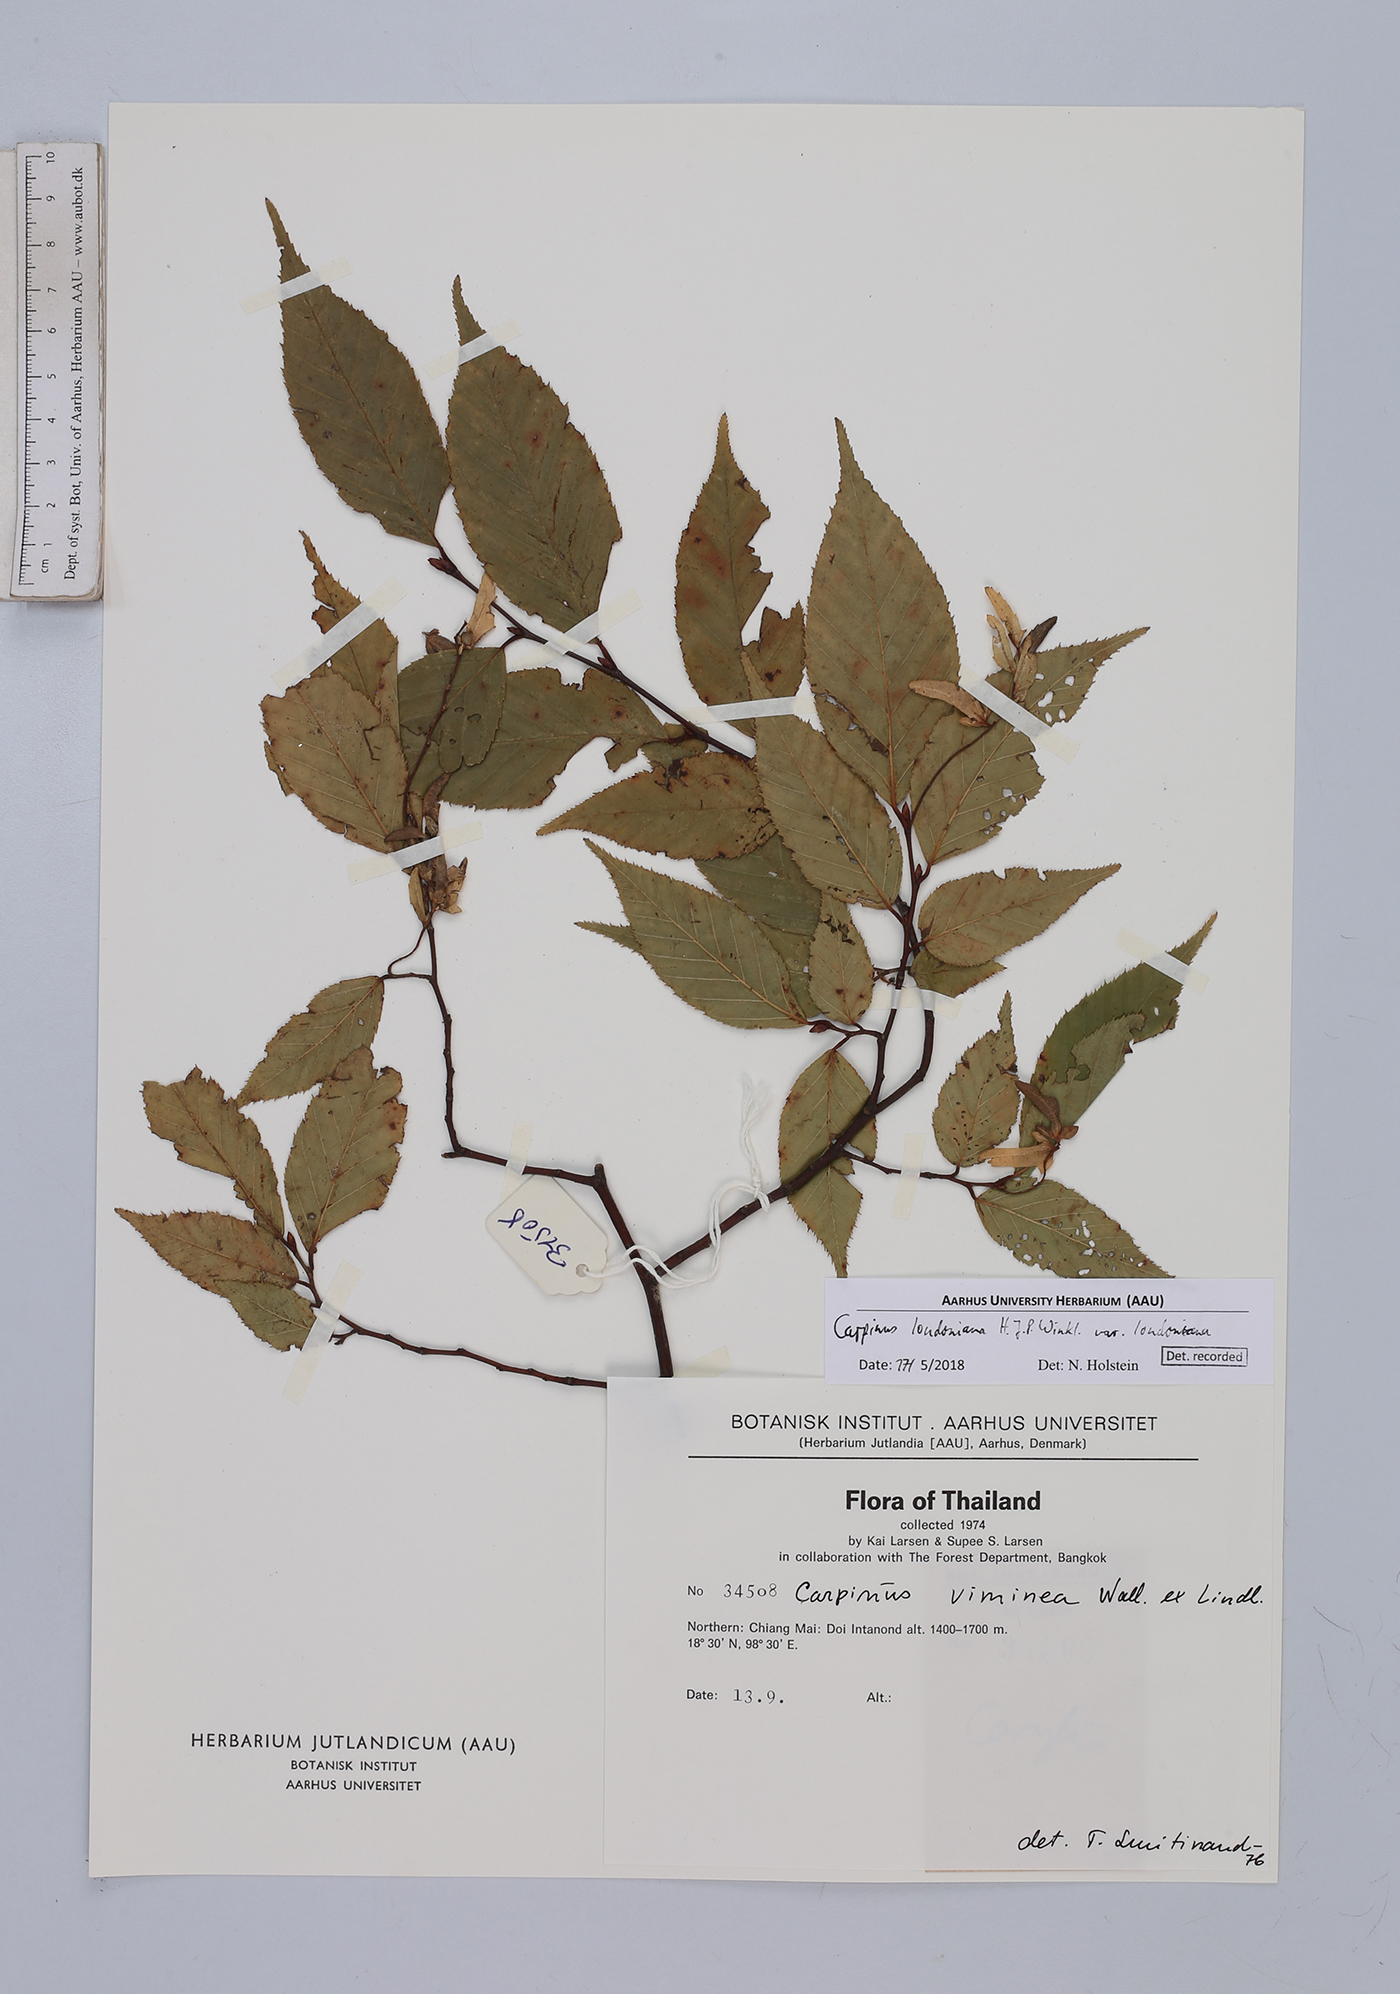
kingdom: Plantae
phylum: Tracheophyta
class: Magnoliopsida
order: Fagales
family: Betulaceae
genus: Carpinus
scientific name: Carpinus londoniana
